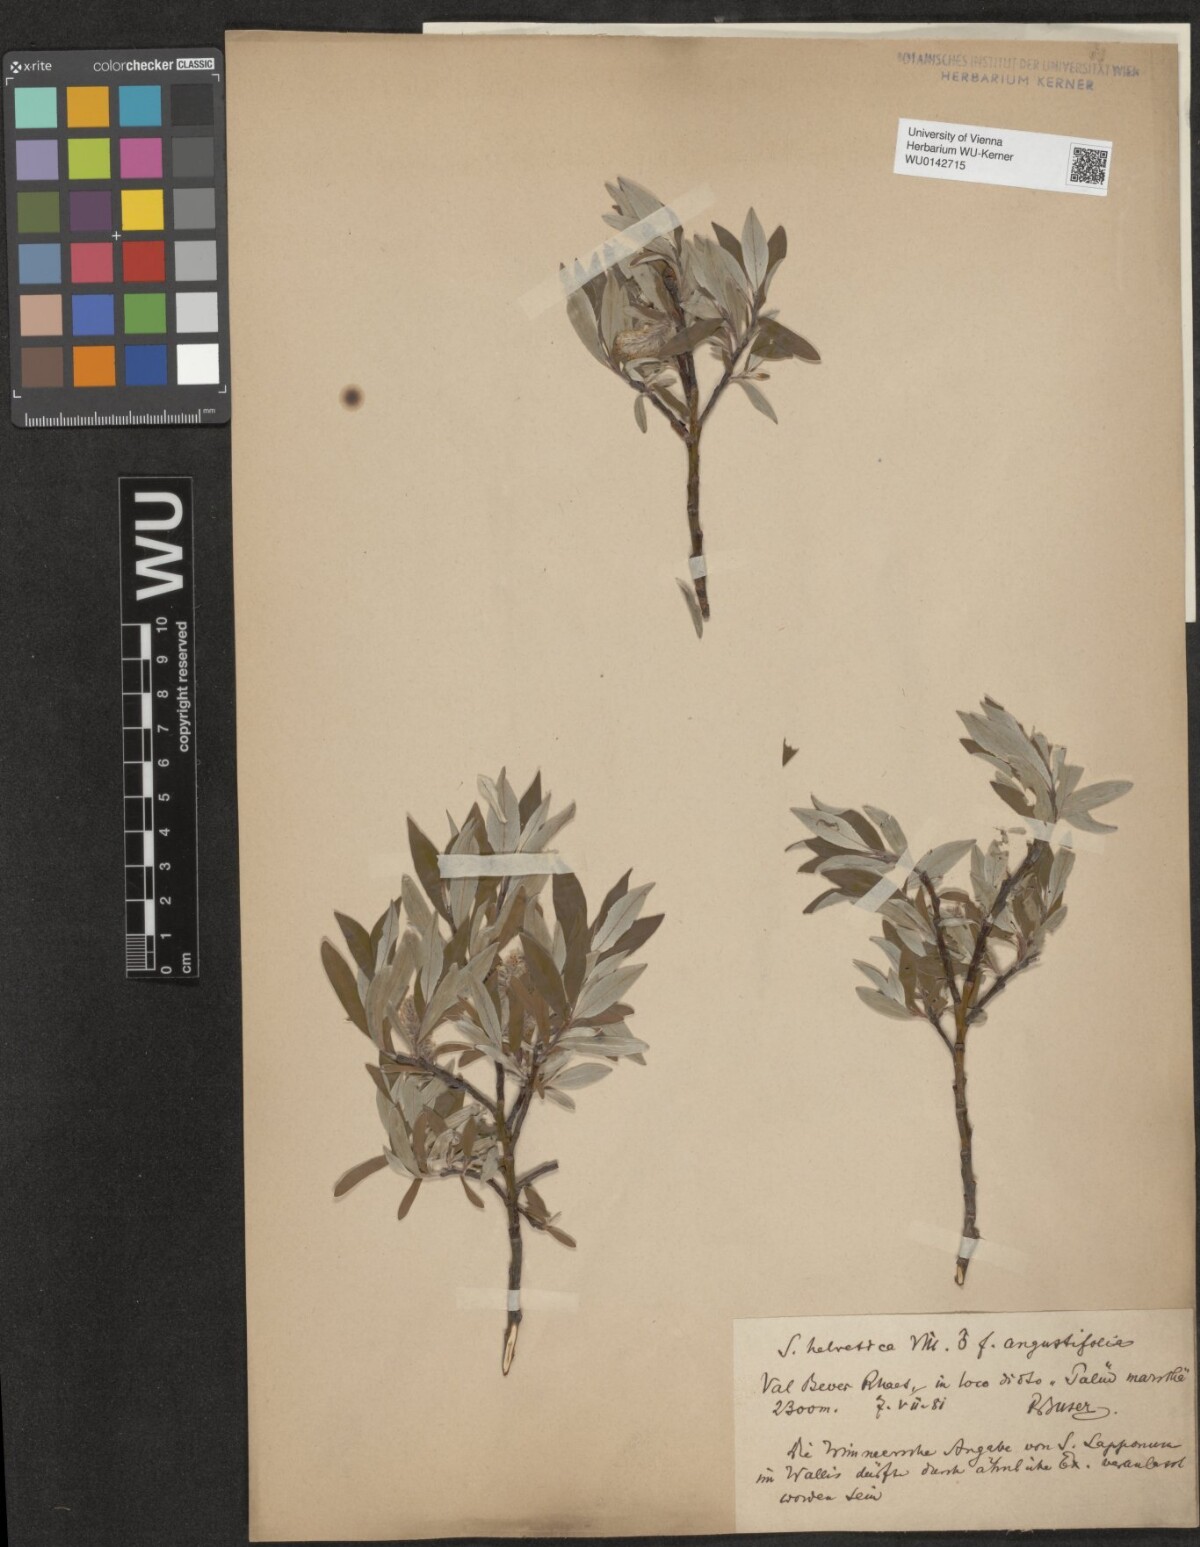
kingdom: Plantae
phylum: Tracheophyta
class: Magnoliopsida
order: Malpighiales
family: Salicaceae
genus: Salix
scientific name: Salix helvetica
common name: Swiss willow
